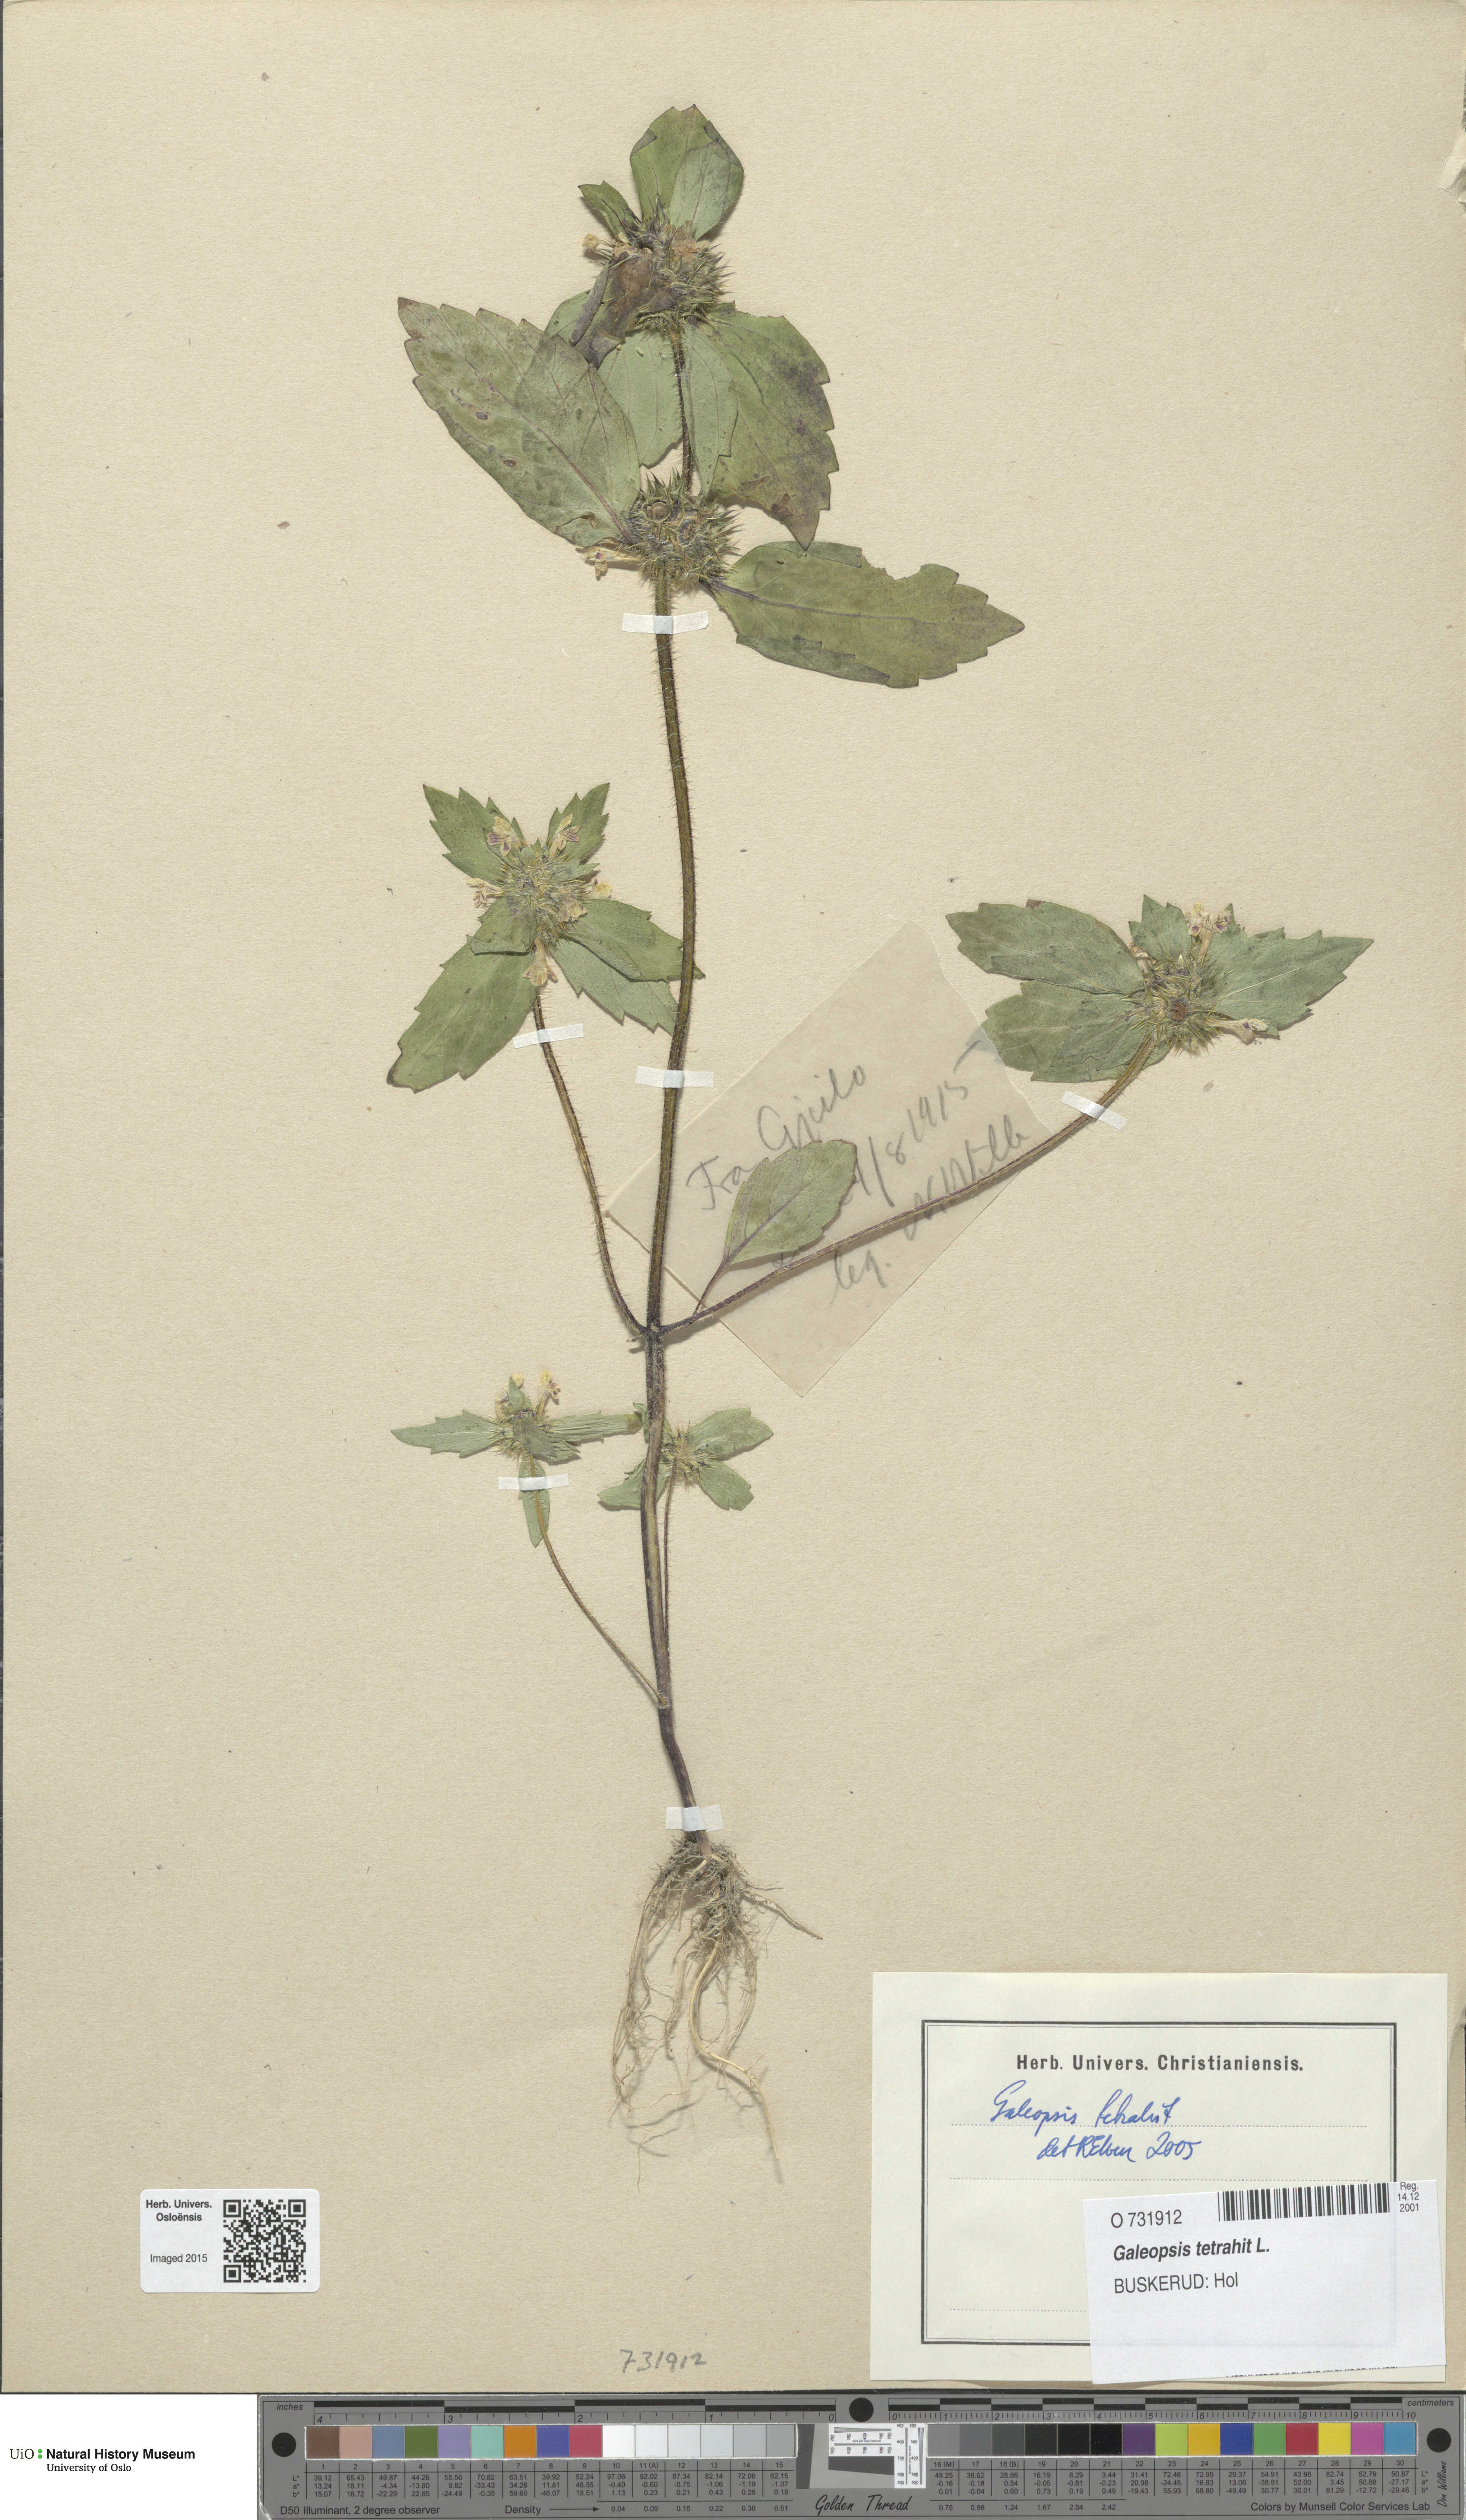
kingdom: Plantae
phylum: Tracheophyta
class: Magnoliopsida
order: Lamiales
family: Lamiaceae
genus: Galeopsis
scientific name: Galeopsis tetrahit
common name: Common hemp-nettle
